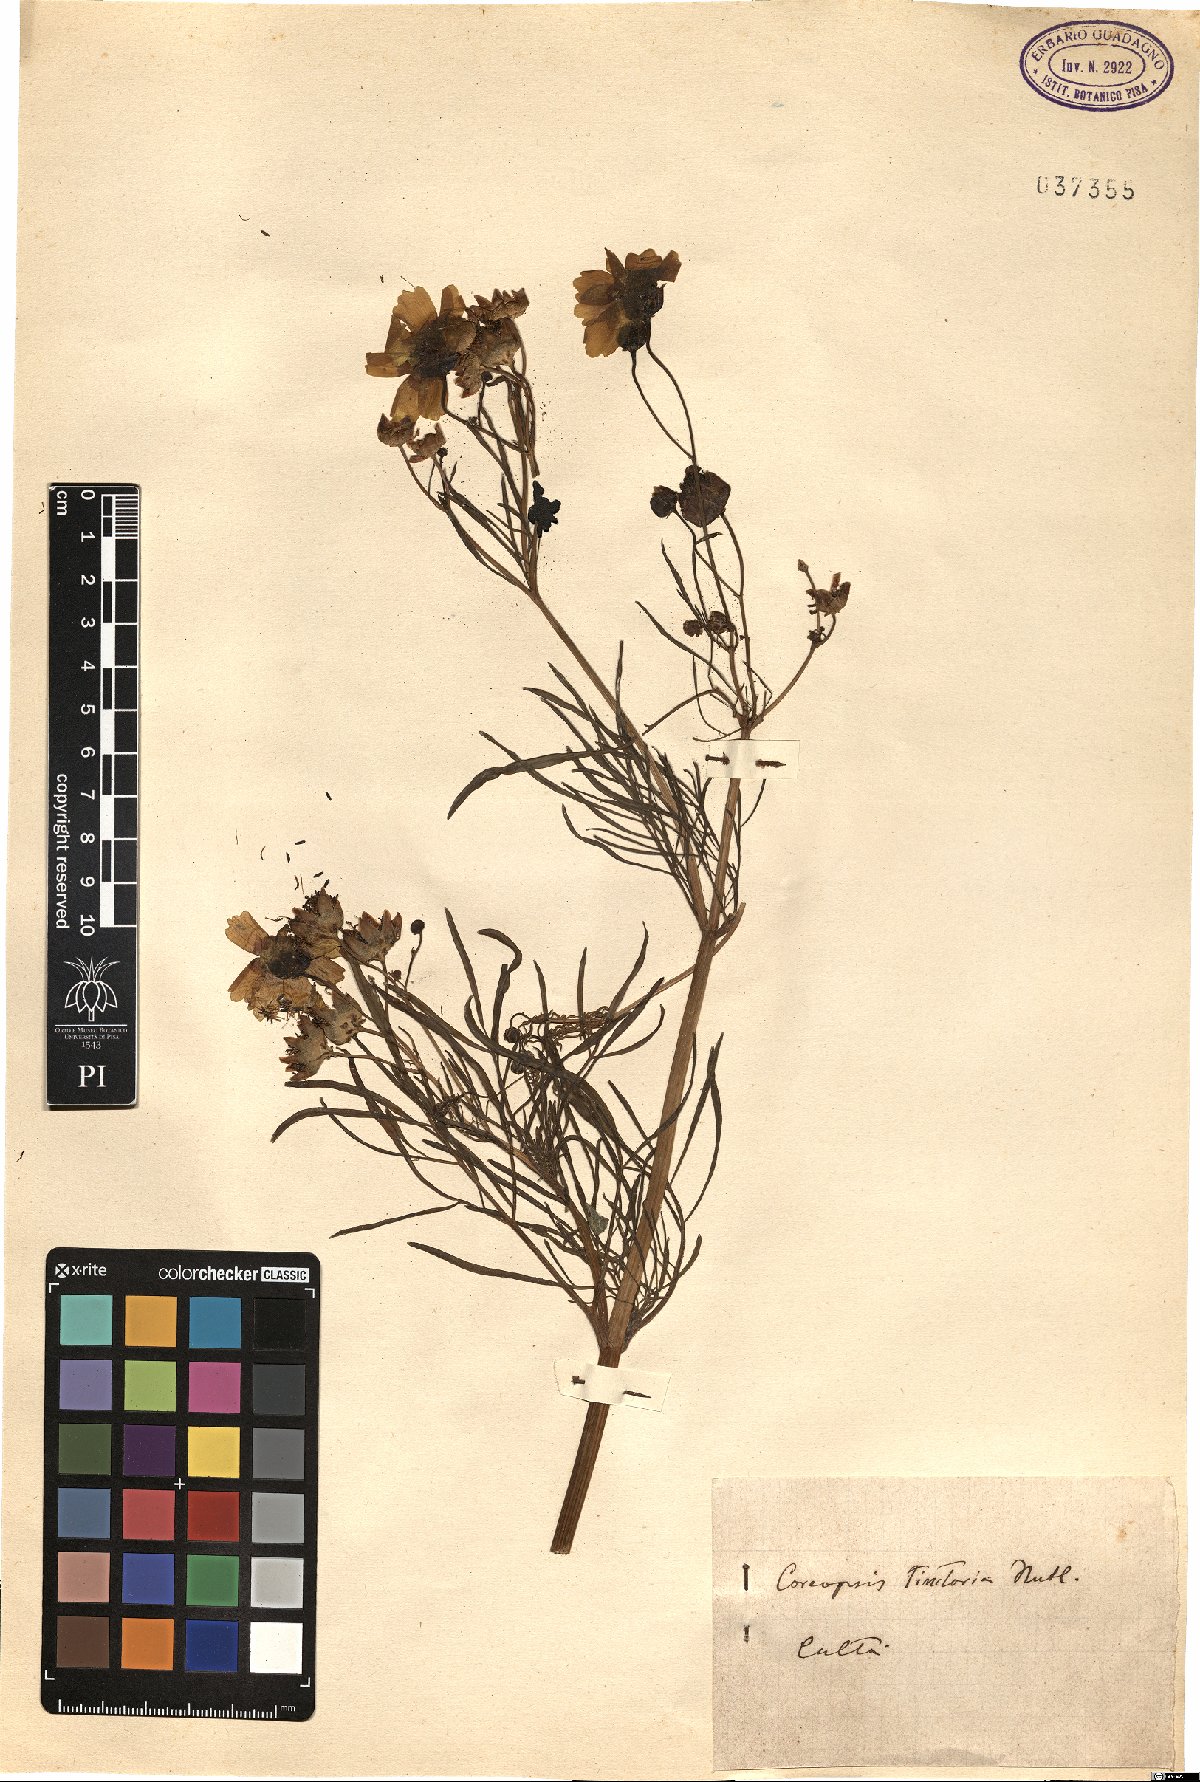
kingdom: Plantae
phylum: Tracheophyta
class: Magnoliopsida
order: Asterales
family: Asteraceae
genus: Coreopsis
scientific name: Coreopsis tinctoria
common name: Garden tickseed
